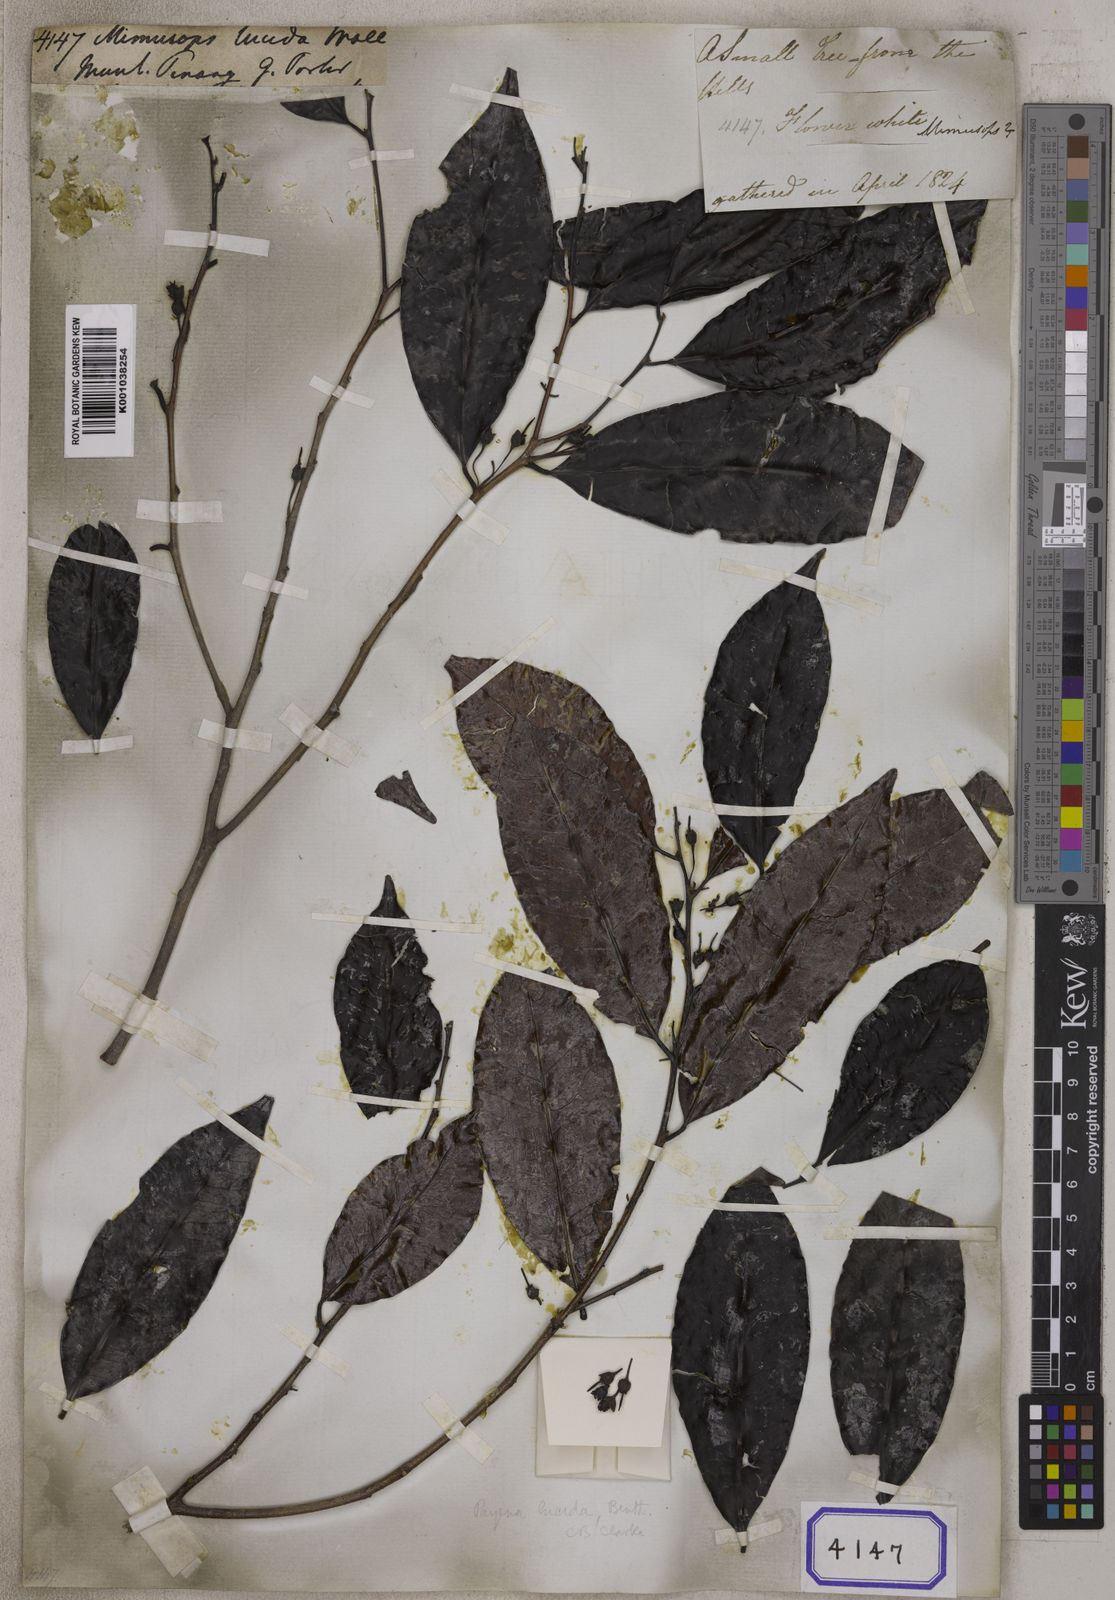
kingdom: Plantae
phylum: Tracheophyta
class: Magnoliopsida
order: Ericales
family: Sapotaceae
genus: Mimusops
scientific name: Mimusops
